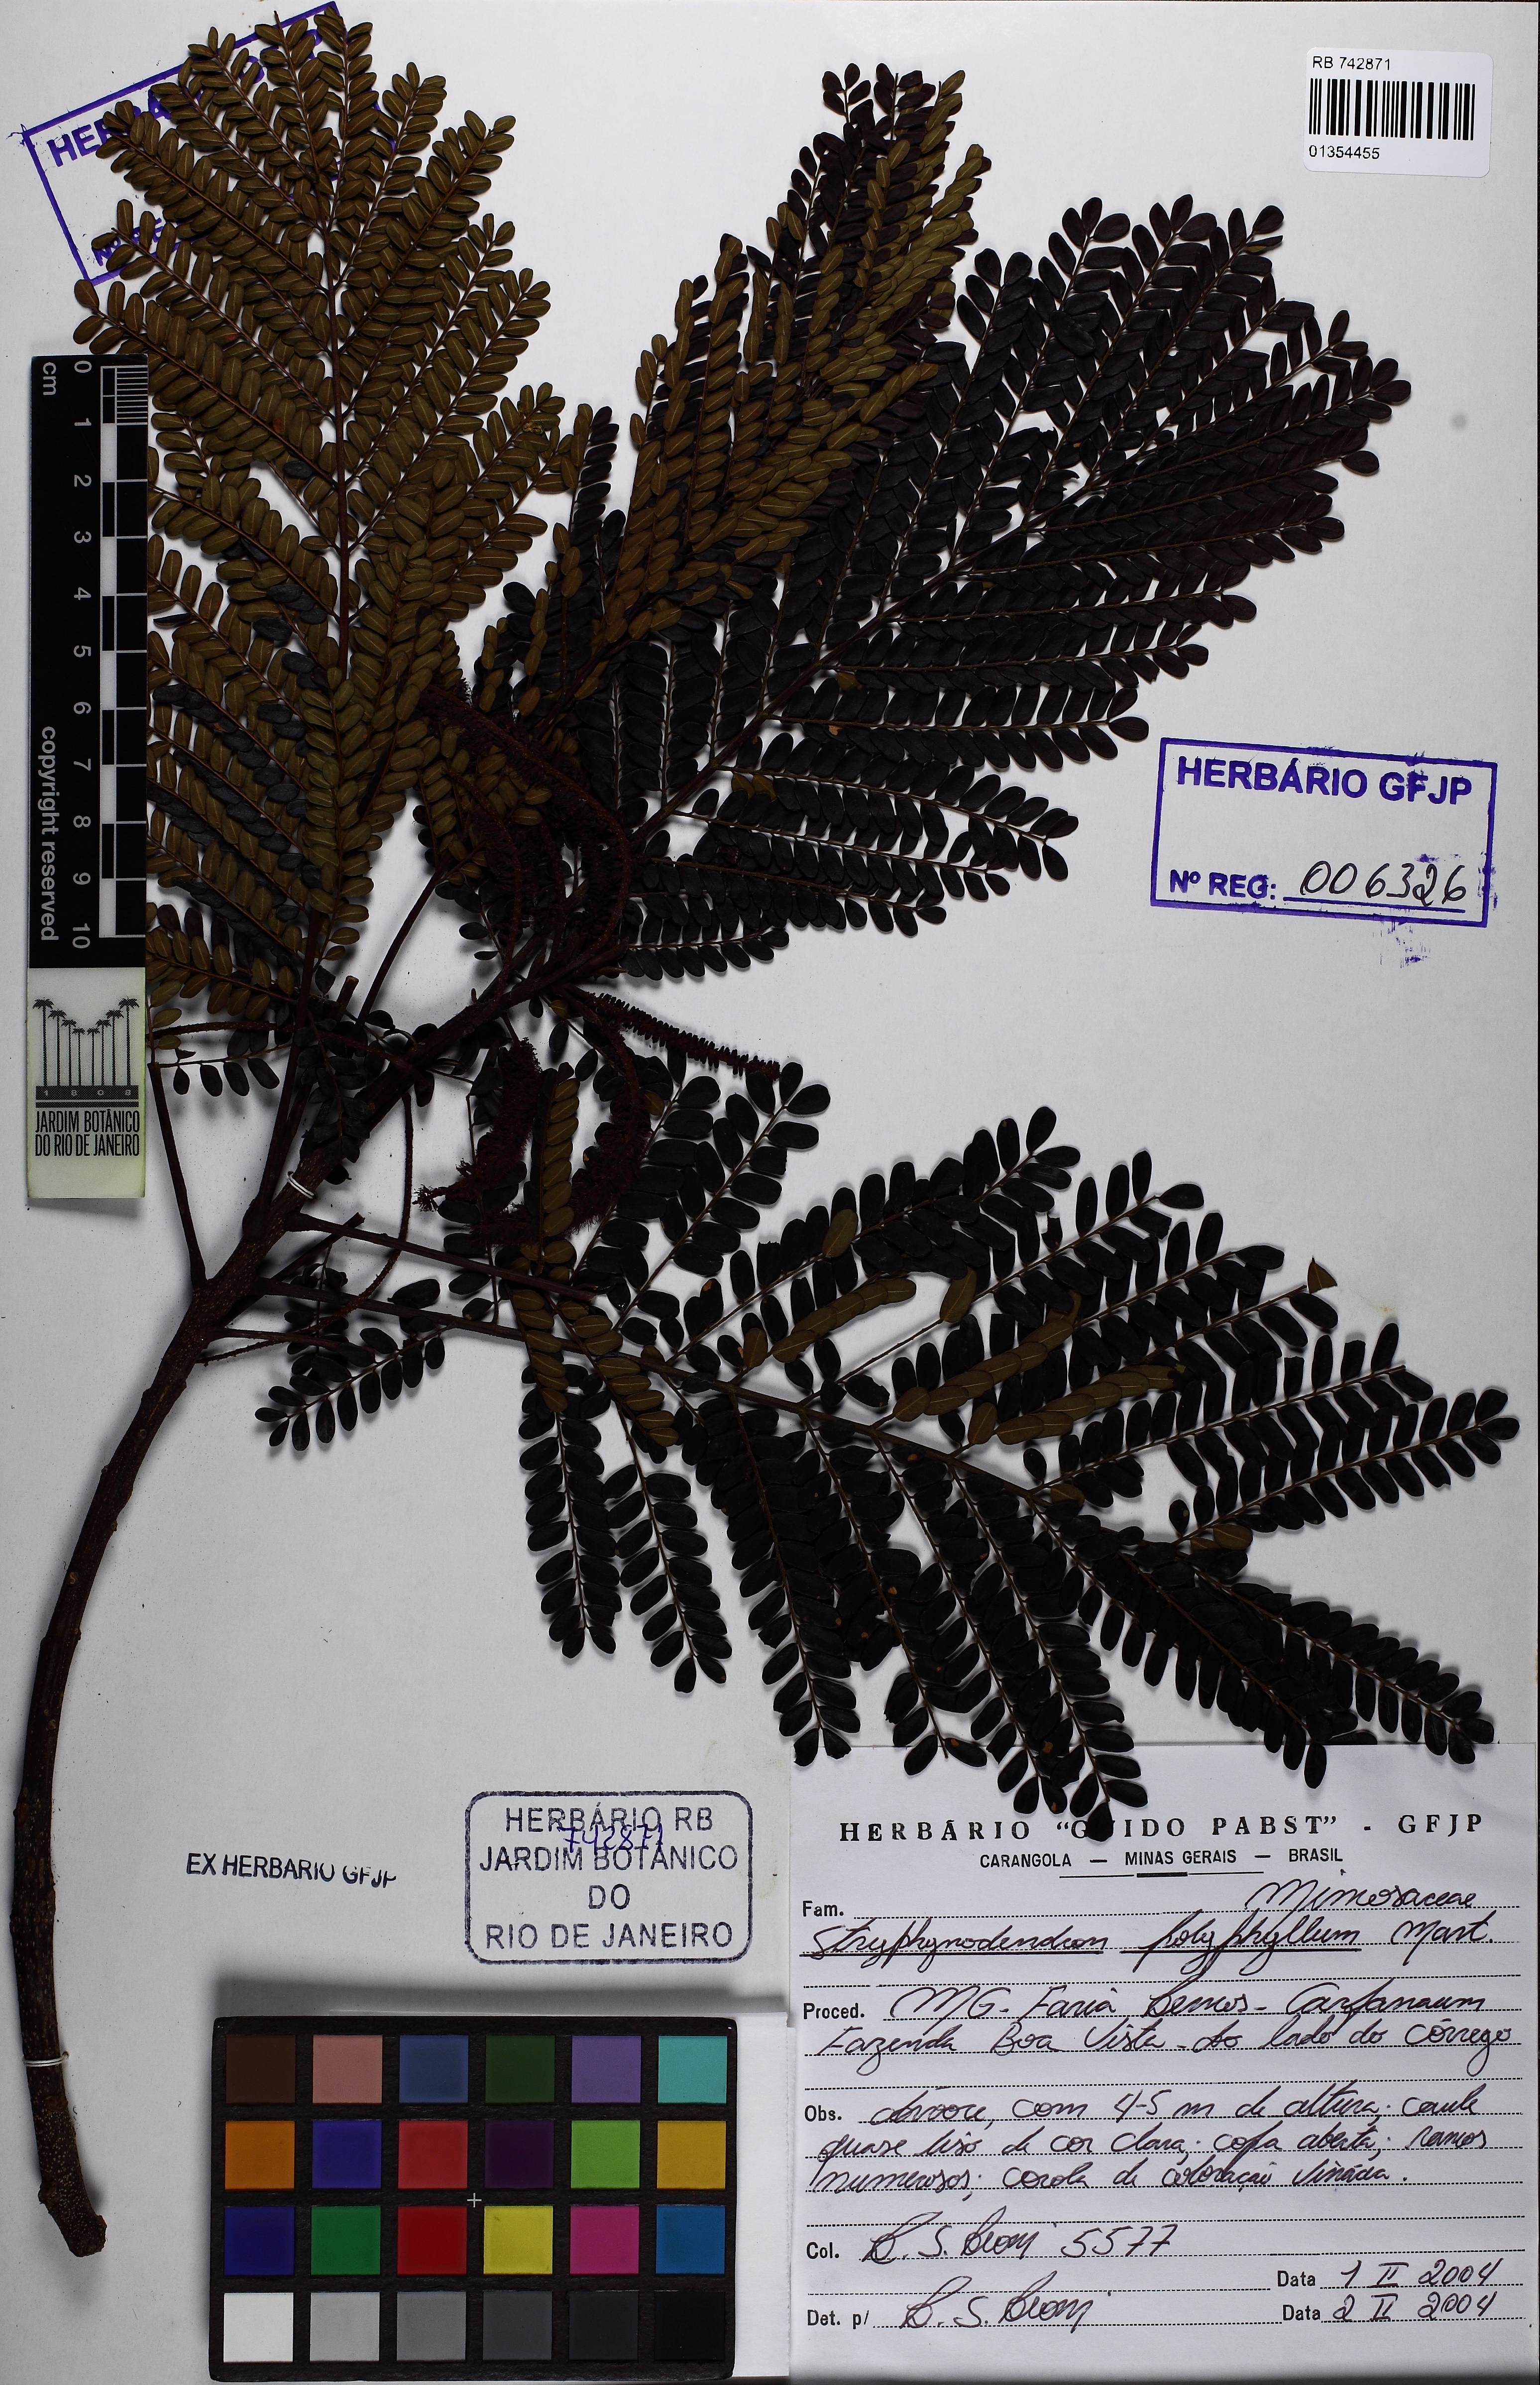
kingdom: Plantae
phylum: Tracheophyta
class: Magnoliopsida
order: Fabales
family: Fabaceae
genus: Stryphnodendron
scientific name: Stryphnodendron polyphyllum
